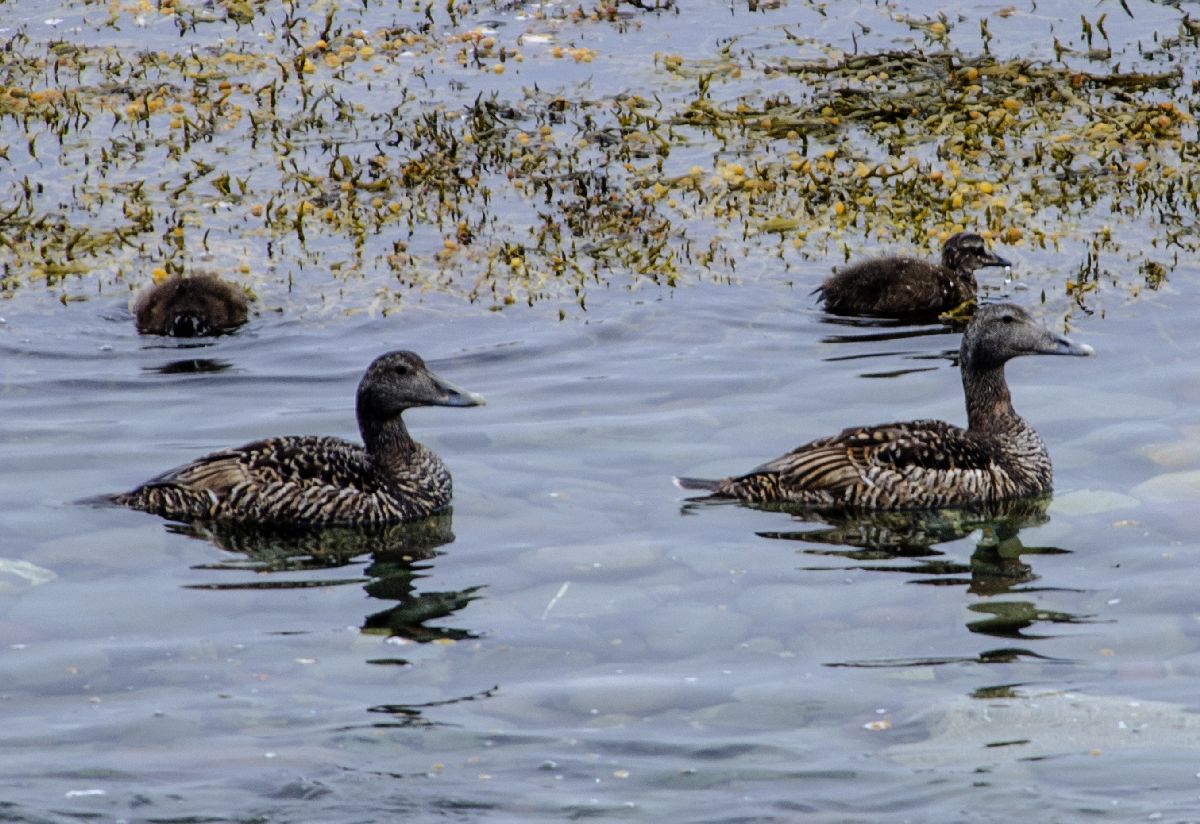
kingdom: Animalia
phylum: Chordata
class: Aves
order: Anseriformes
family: Anatidae
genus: Somateria
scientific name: Somateria mollissima
